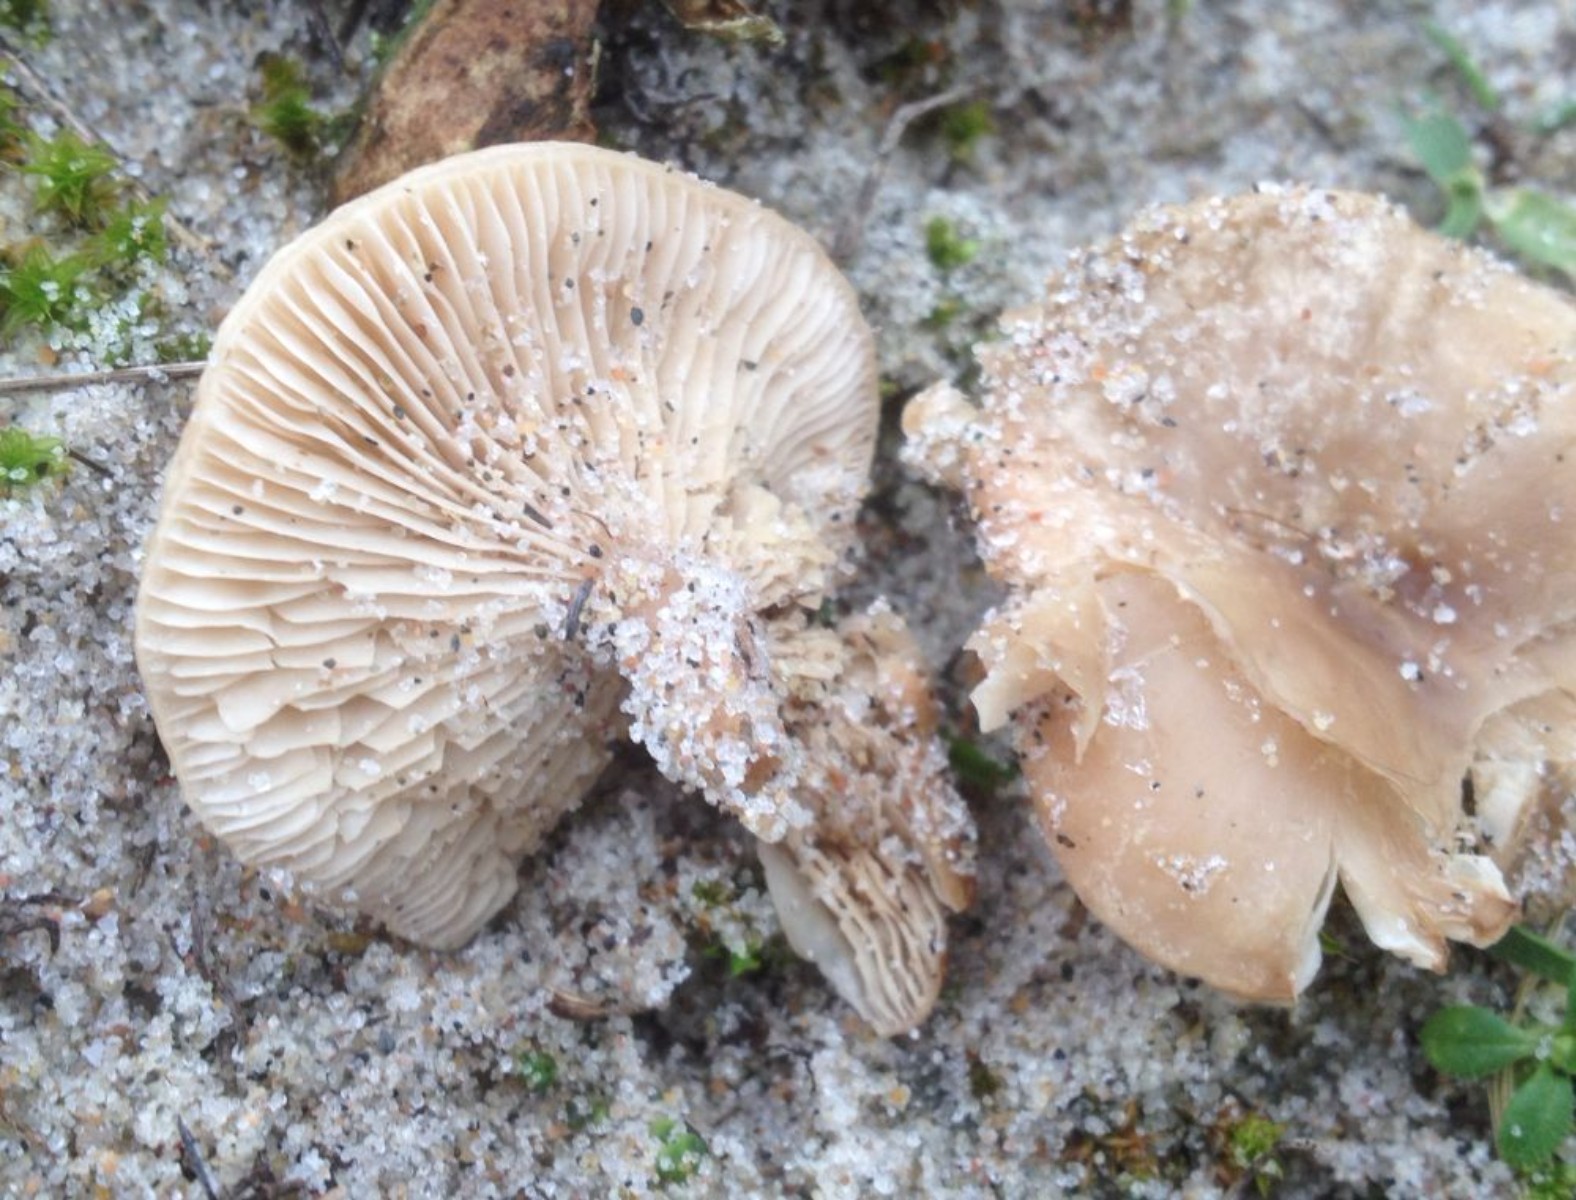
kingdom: Fungi
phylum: Basidiomycota
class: Agaricomycetes
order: Agaricales
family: Tricholomataceae
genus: Clitocybe
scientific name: Clitocybe
